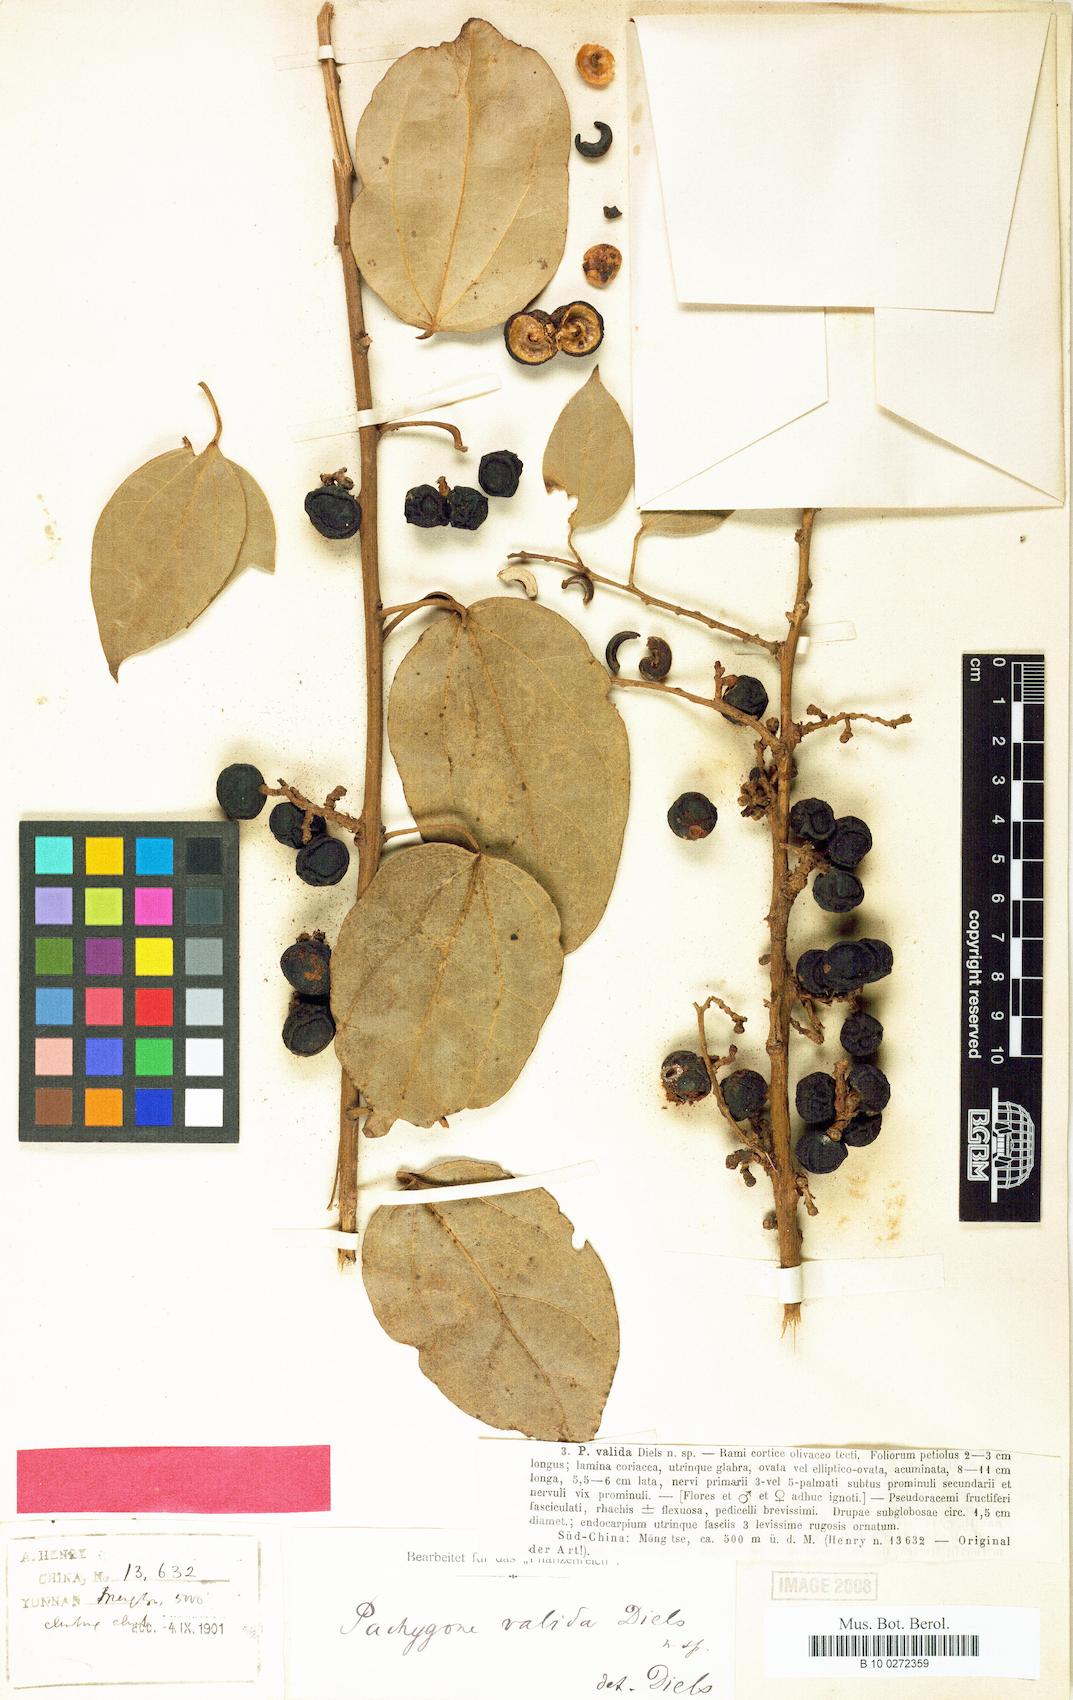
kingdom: Plantae
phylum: Tracheophyta
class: Magnoliopsida
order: Ranunculales
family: Menispermaceae
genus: Pachygone
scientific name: Pachygone valida
